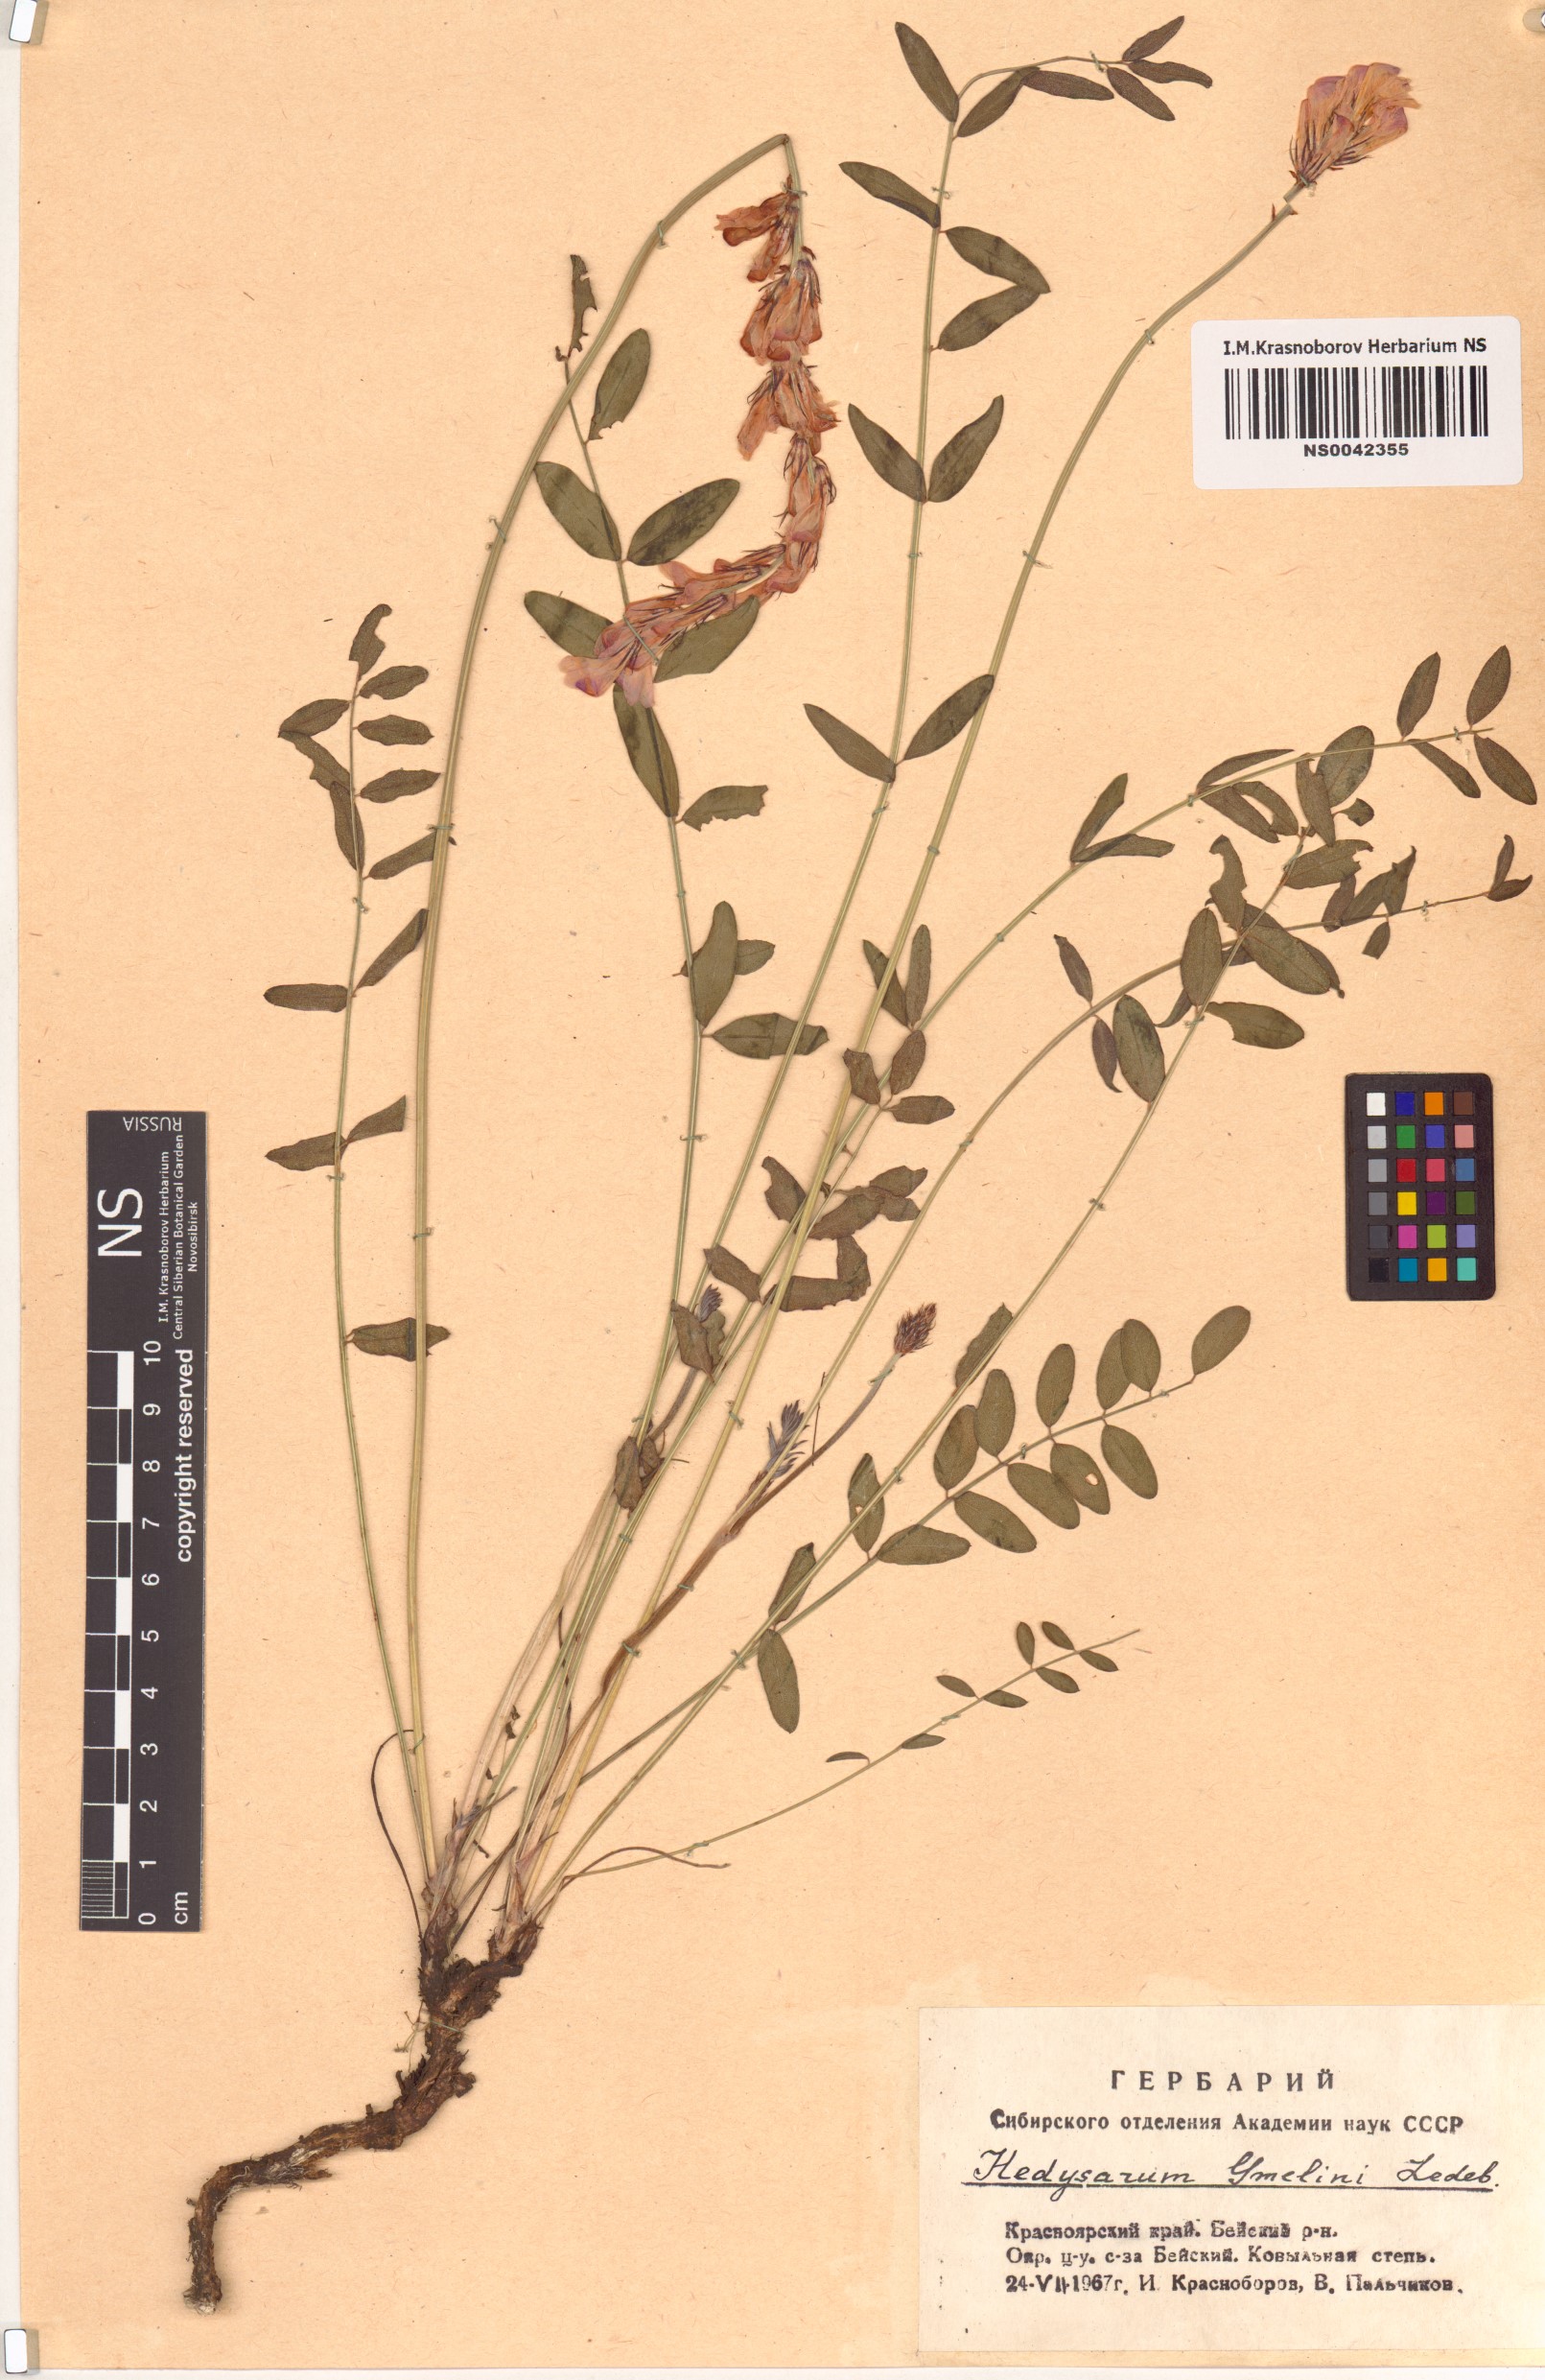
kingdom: Plantae
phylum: Tracheophyta
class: Magnoliopsida
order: Fabales
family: Fabaceae
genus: Hedysarum
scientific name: Hedysarum gmelinii
